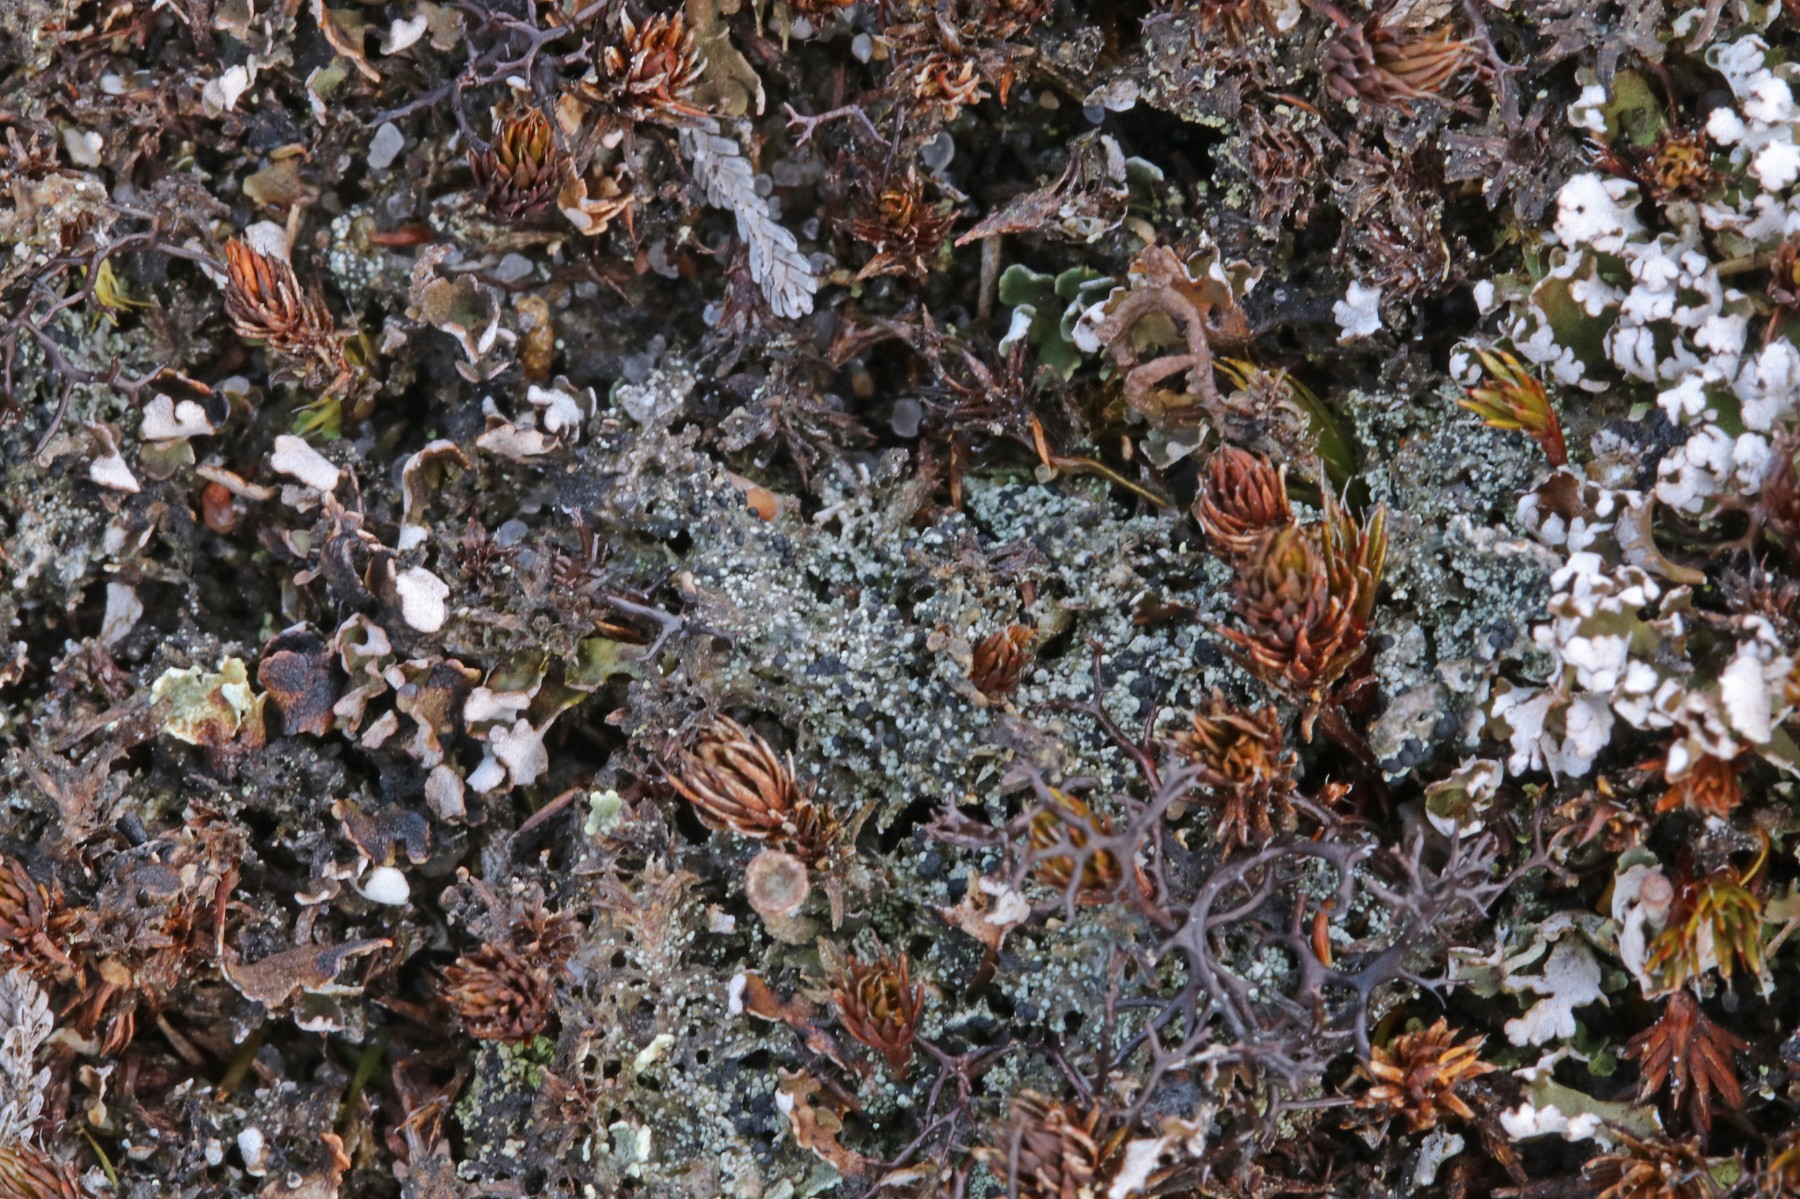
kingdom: Fungi
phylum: Ascomycota
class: Lecanoromycetes
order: Lecanorales
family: Byssolomataceae
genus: Micarea
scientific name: Micarea lignaria
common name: tørve-knaplav
